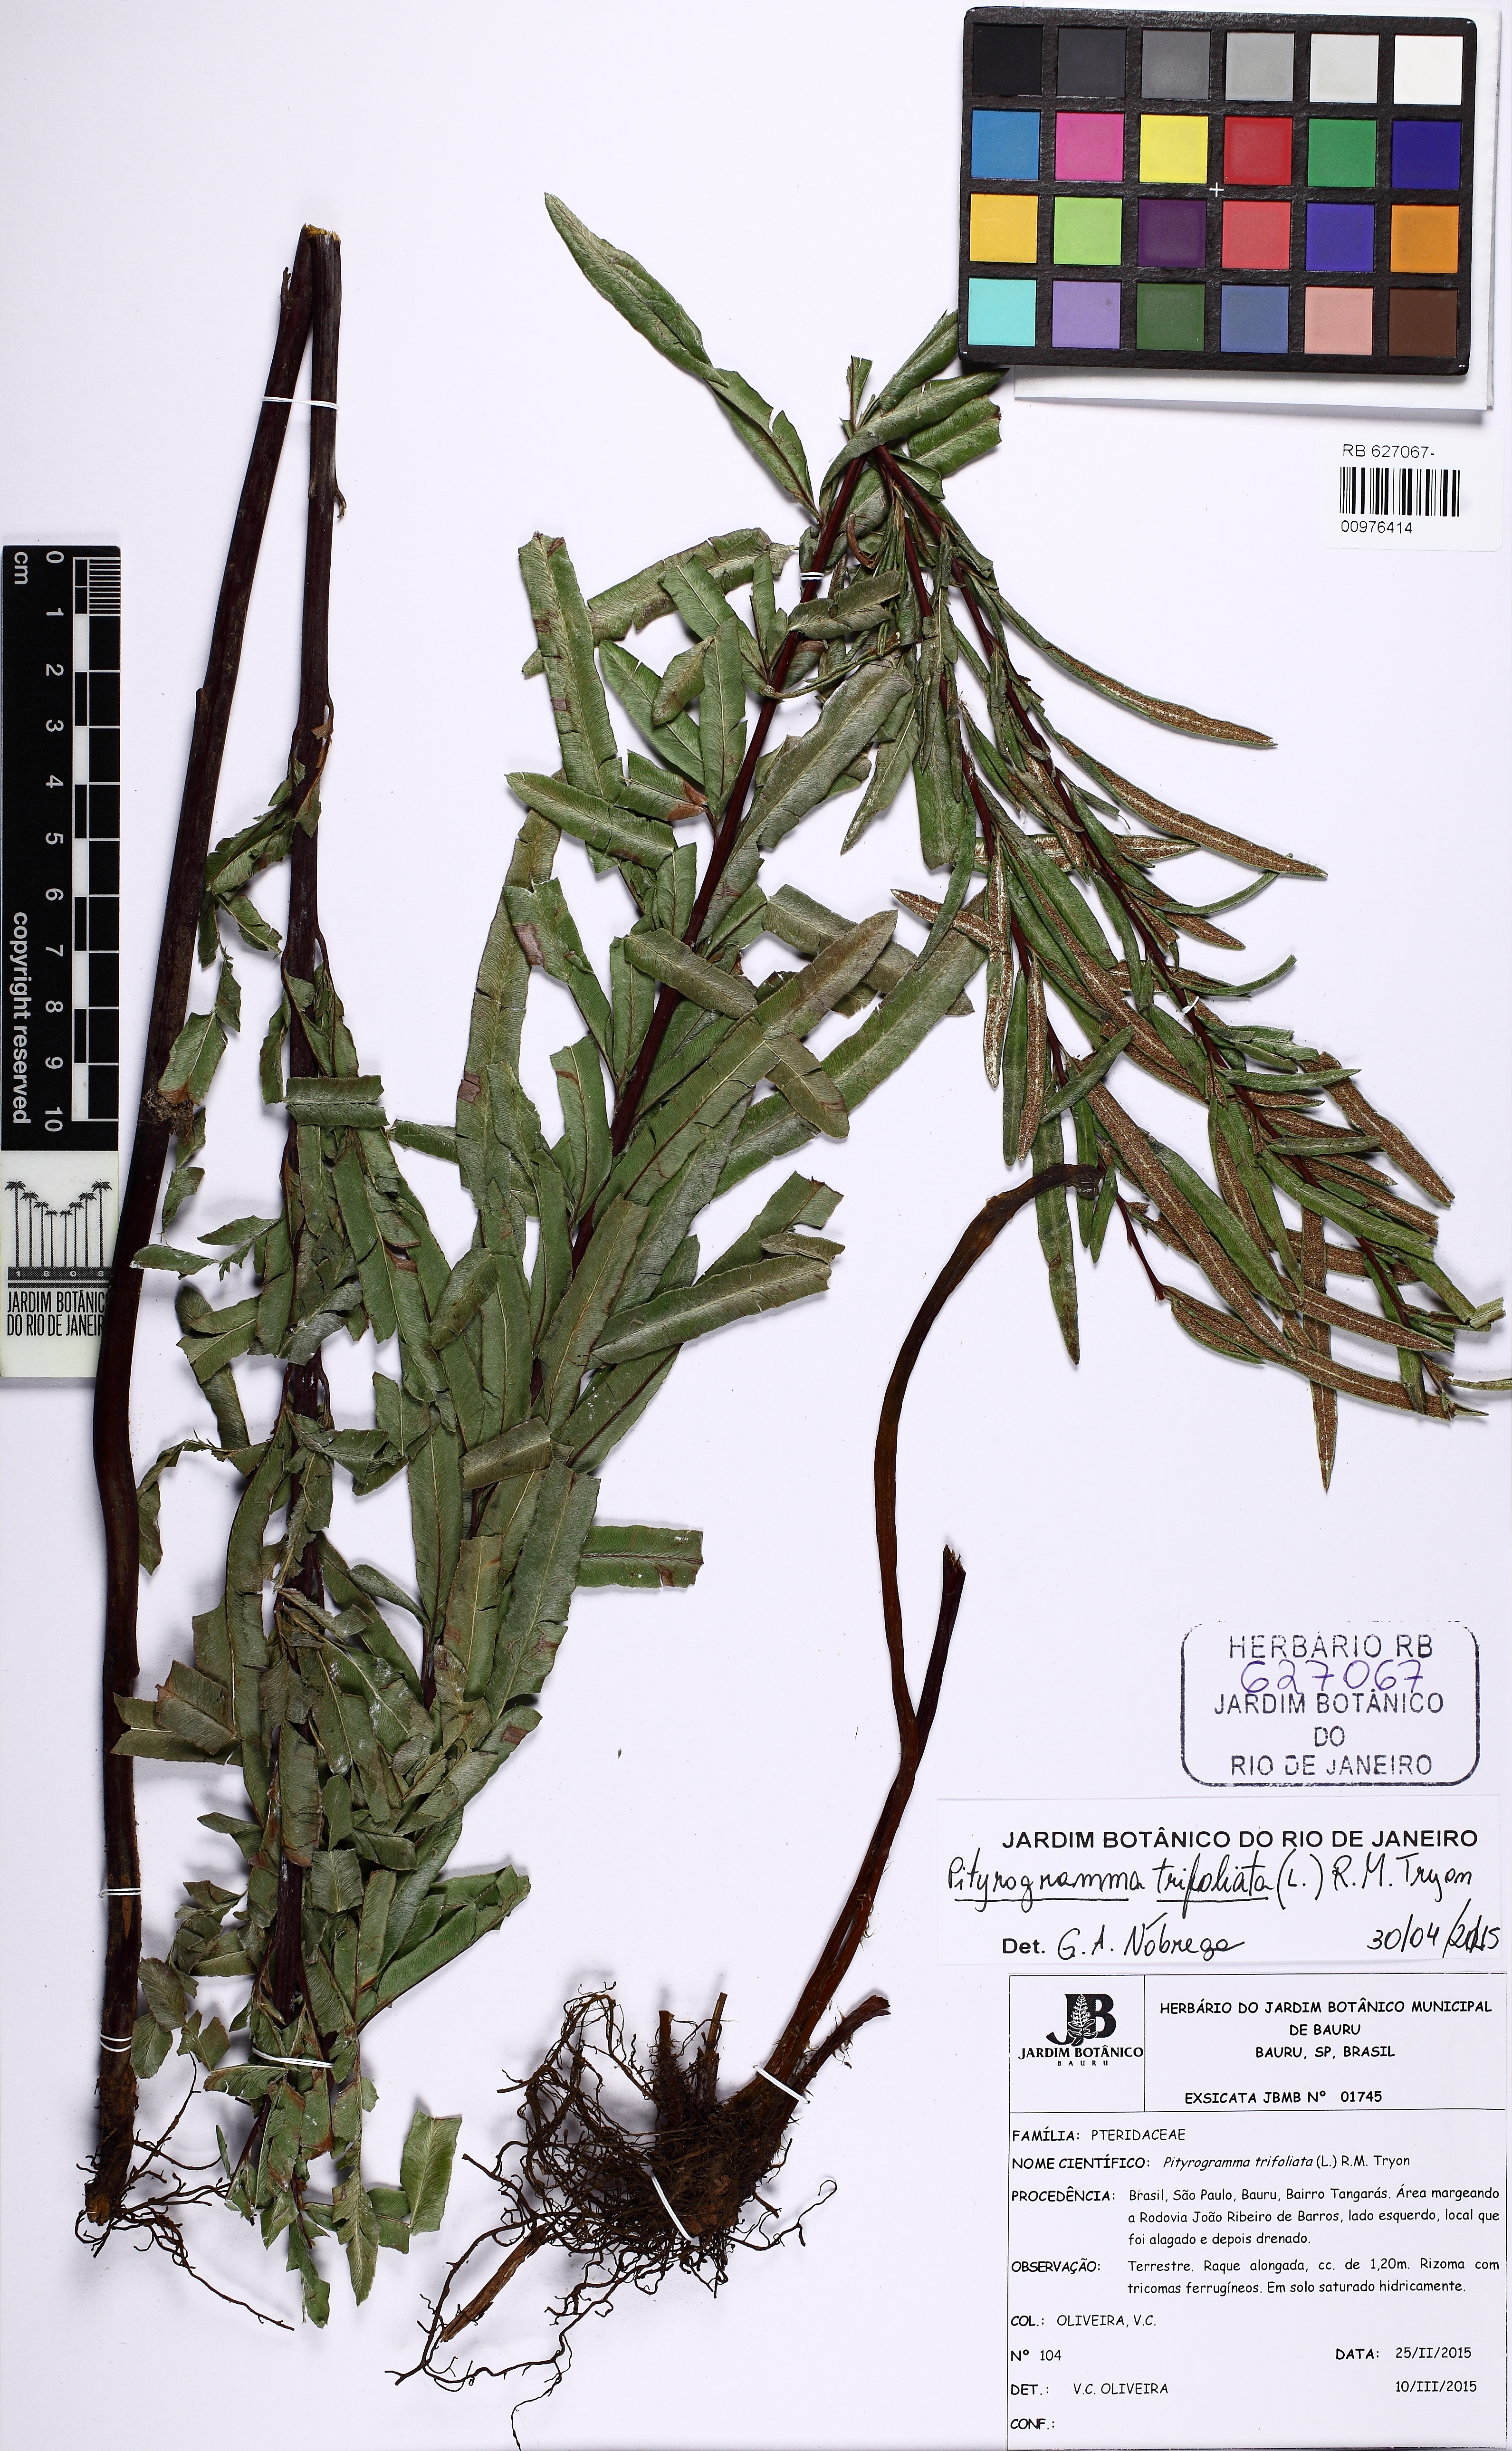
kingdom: Plantae
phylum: Tracheophyta
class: Polypodiopsida
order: Polypodiales
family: Pteridaceae
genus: Pityrogramma
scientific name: Pityrogramma trifoliata
